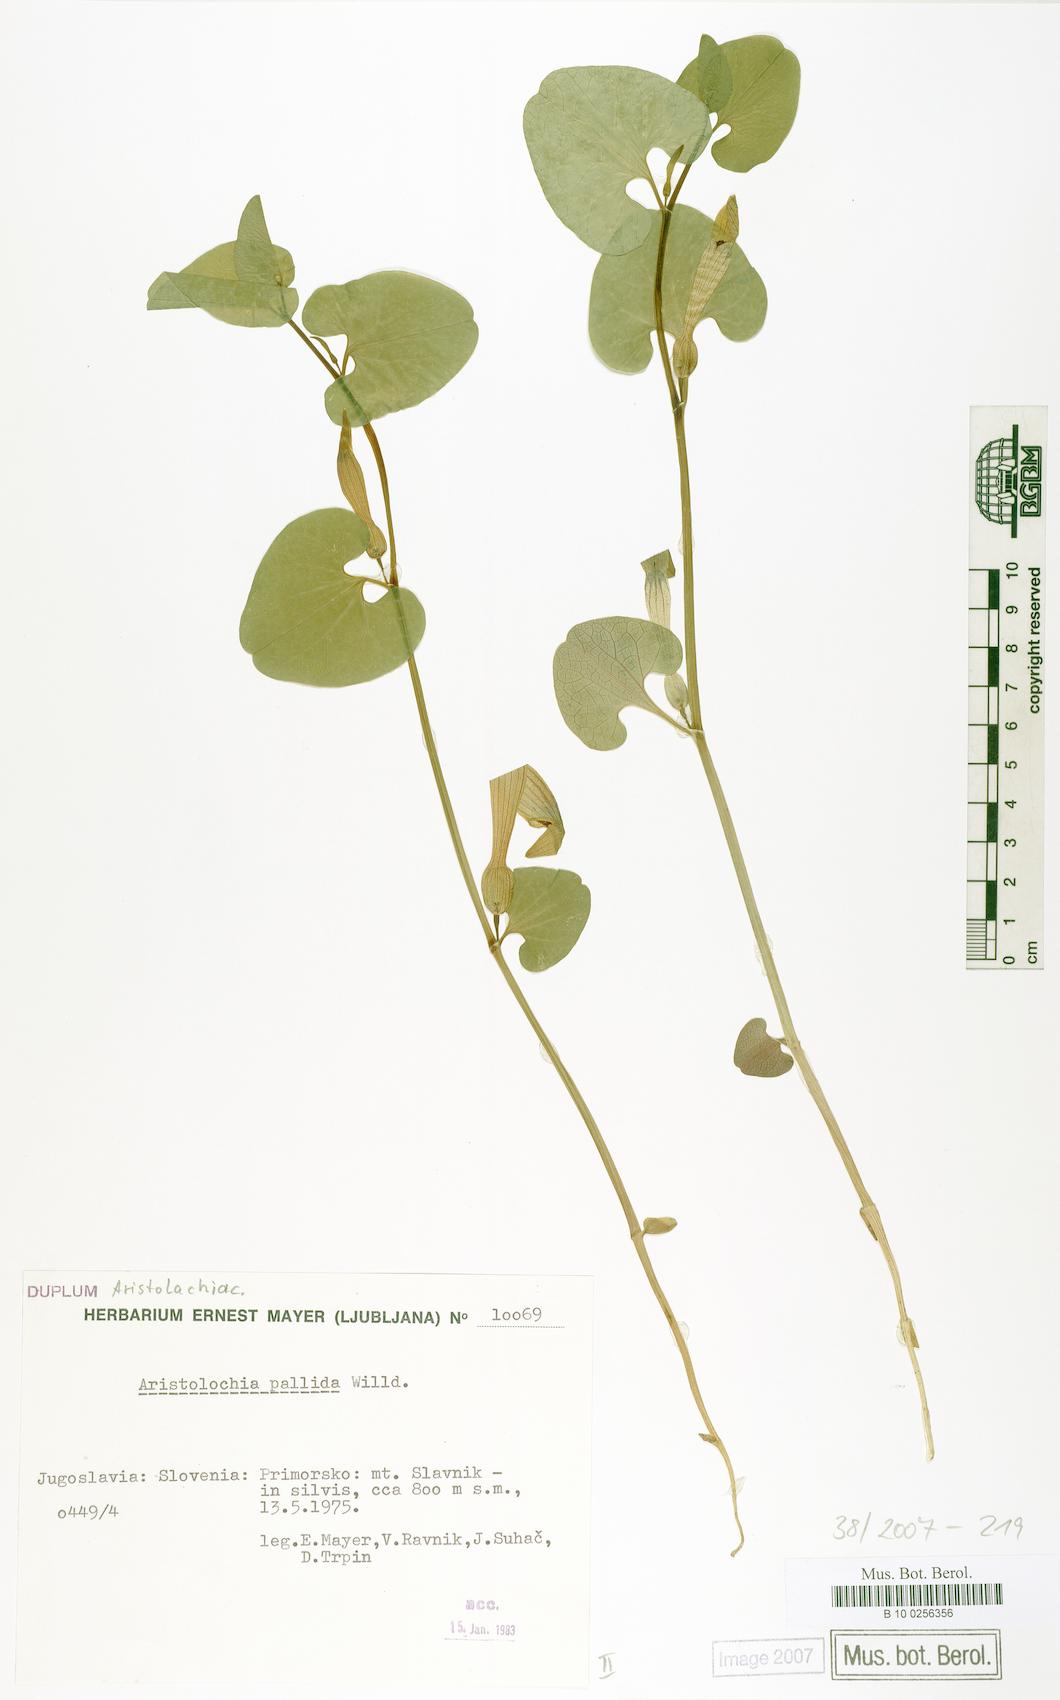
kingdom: Plantae
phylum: Tracheophyta
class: Magnoliopsida
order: Piperales
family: Aristolochiaceae
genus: Aristolochia
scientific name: Aristolochia pallida
